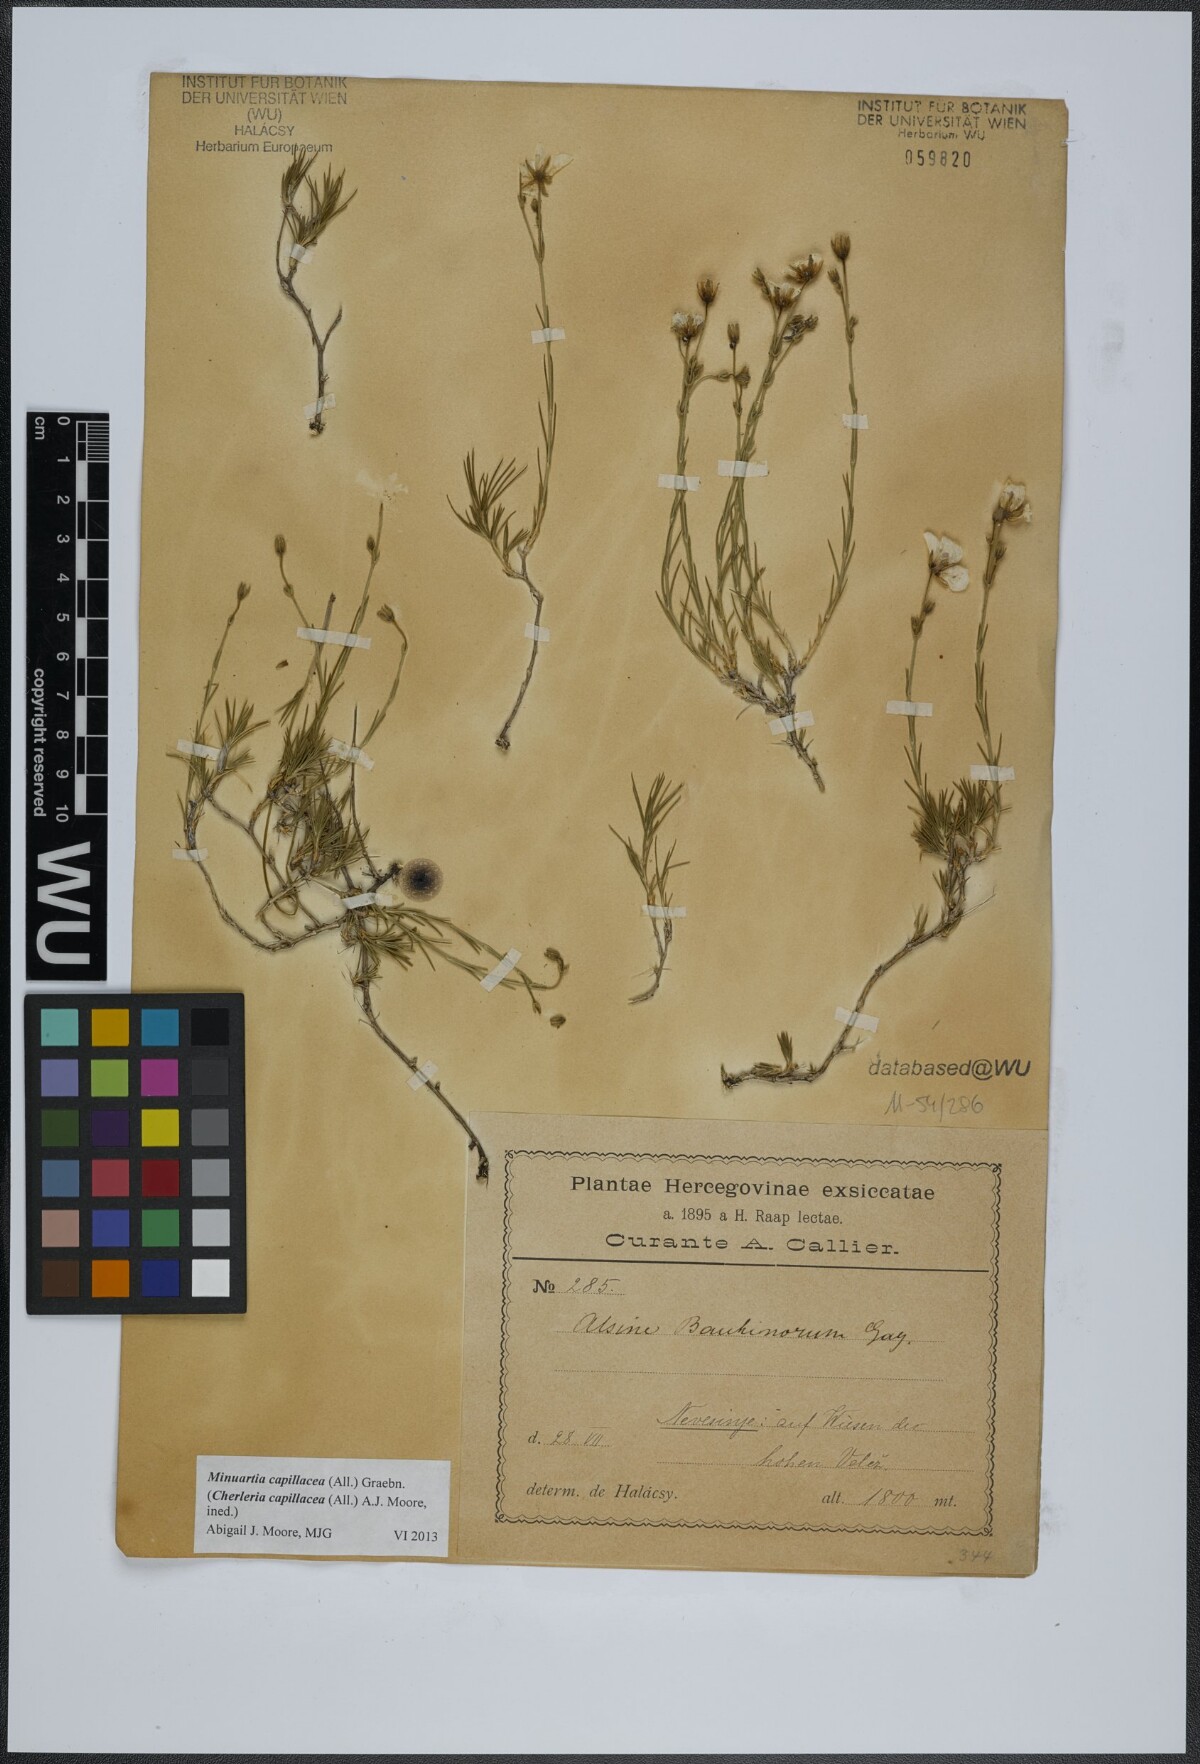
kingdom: Plantae
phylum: Tracheophyta
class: Magnoliopsida
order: Caryophyllales
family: Caryophyllaceae
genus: Cherleria
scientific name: Cherleria capillacea
